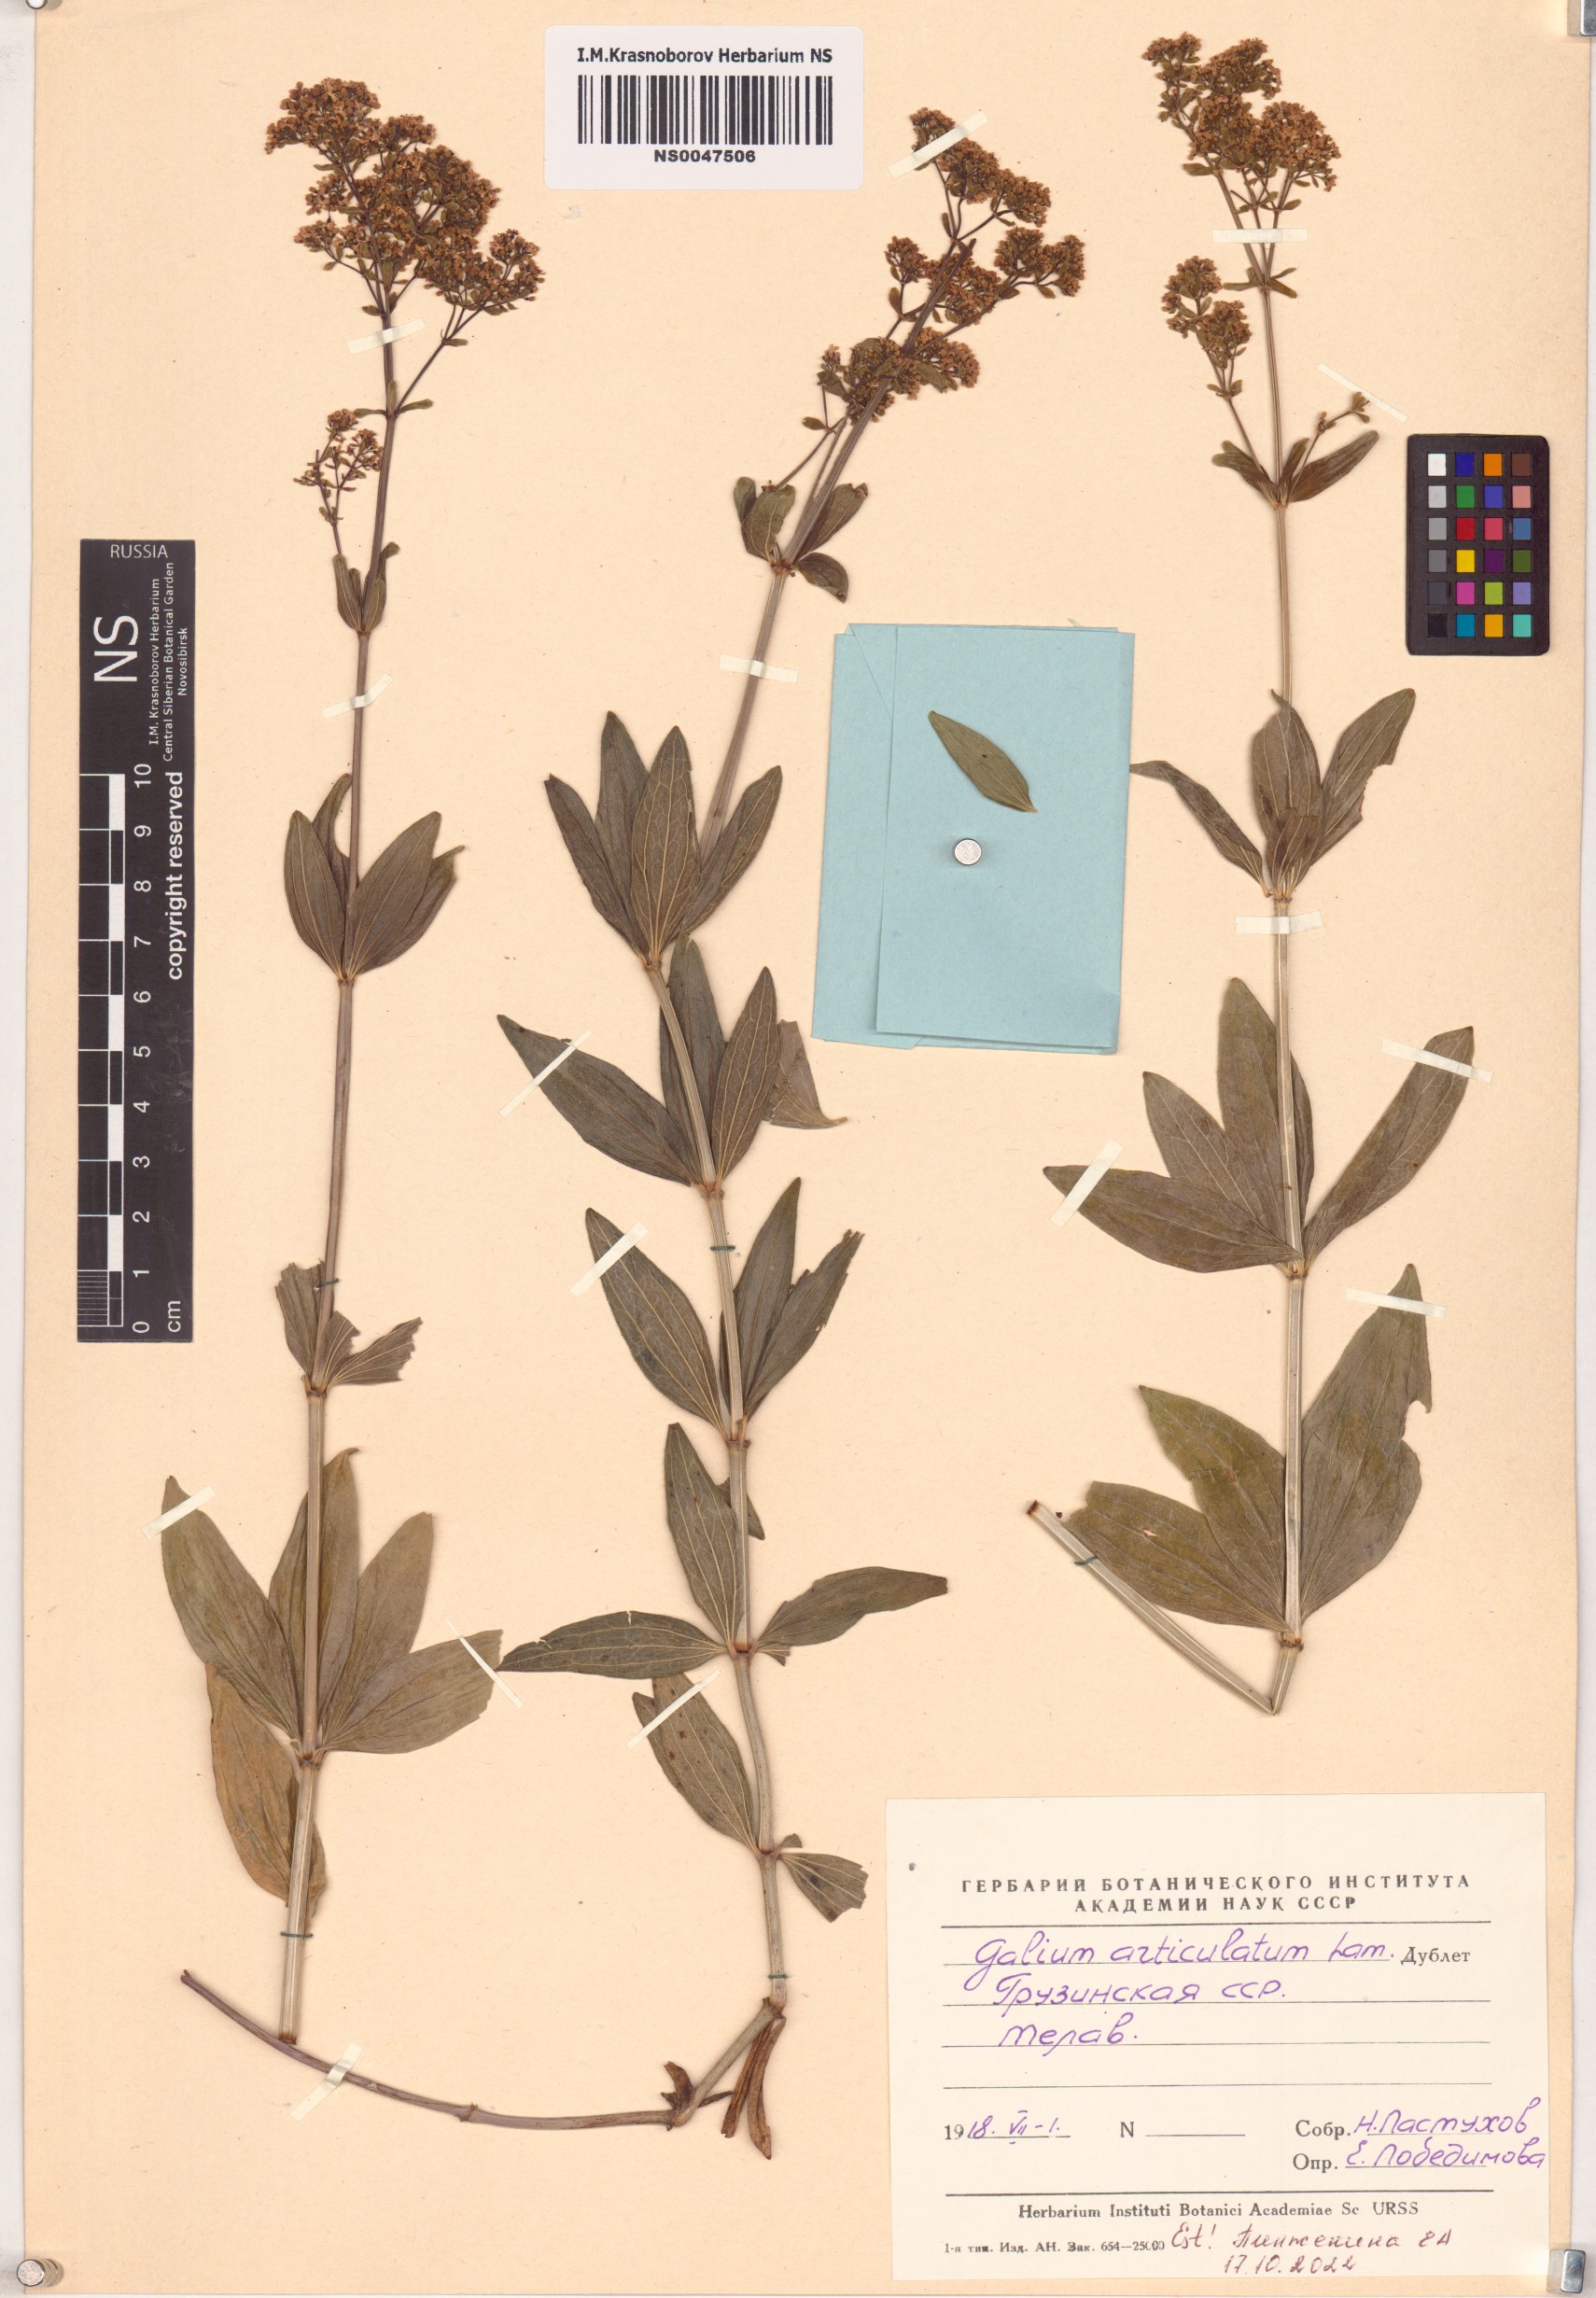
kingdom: Plantae
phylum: Tracheophyta
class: Magnoliopsida
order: Gentianales
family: Rubiaceae
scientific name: Rubiaceae
